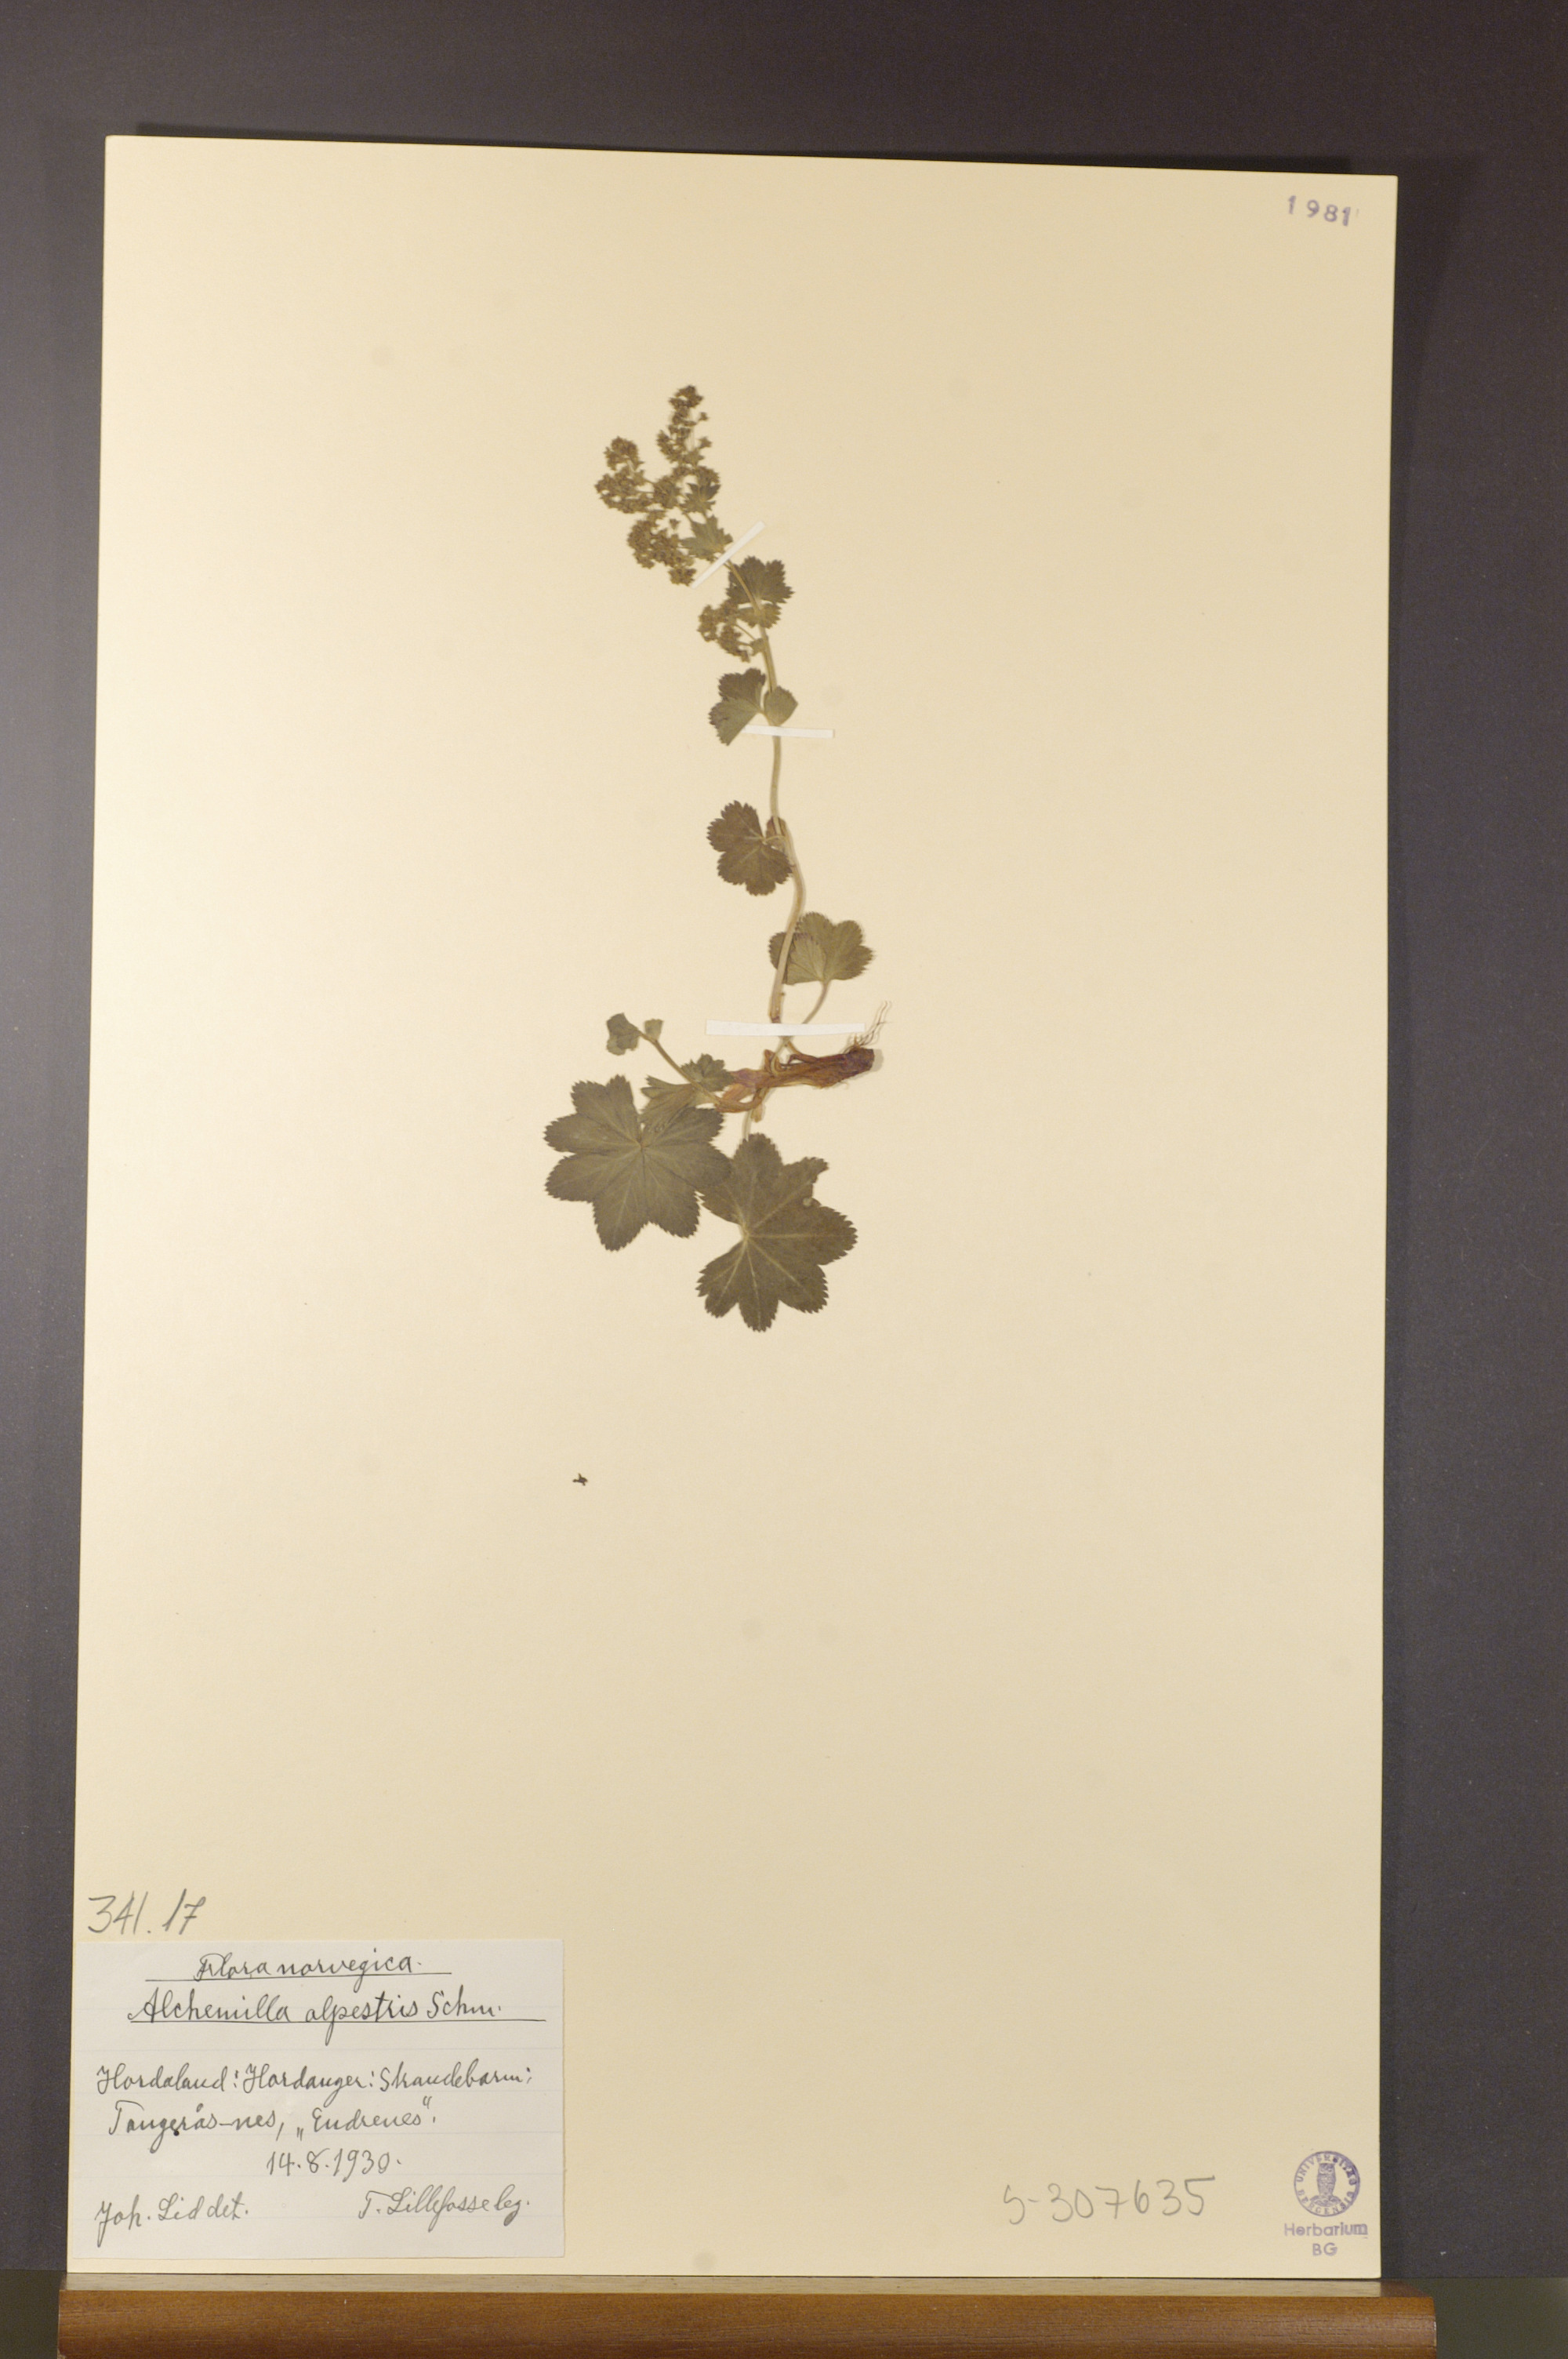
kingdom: Plantae
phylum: Tracheophyta
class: Magnoliopsida
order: Rosales
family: Rosaceae
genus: Alchemilla
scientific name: Alchemilla glabra
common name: Smooth lady's-mantle
